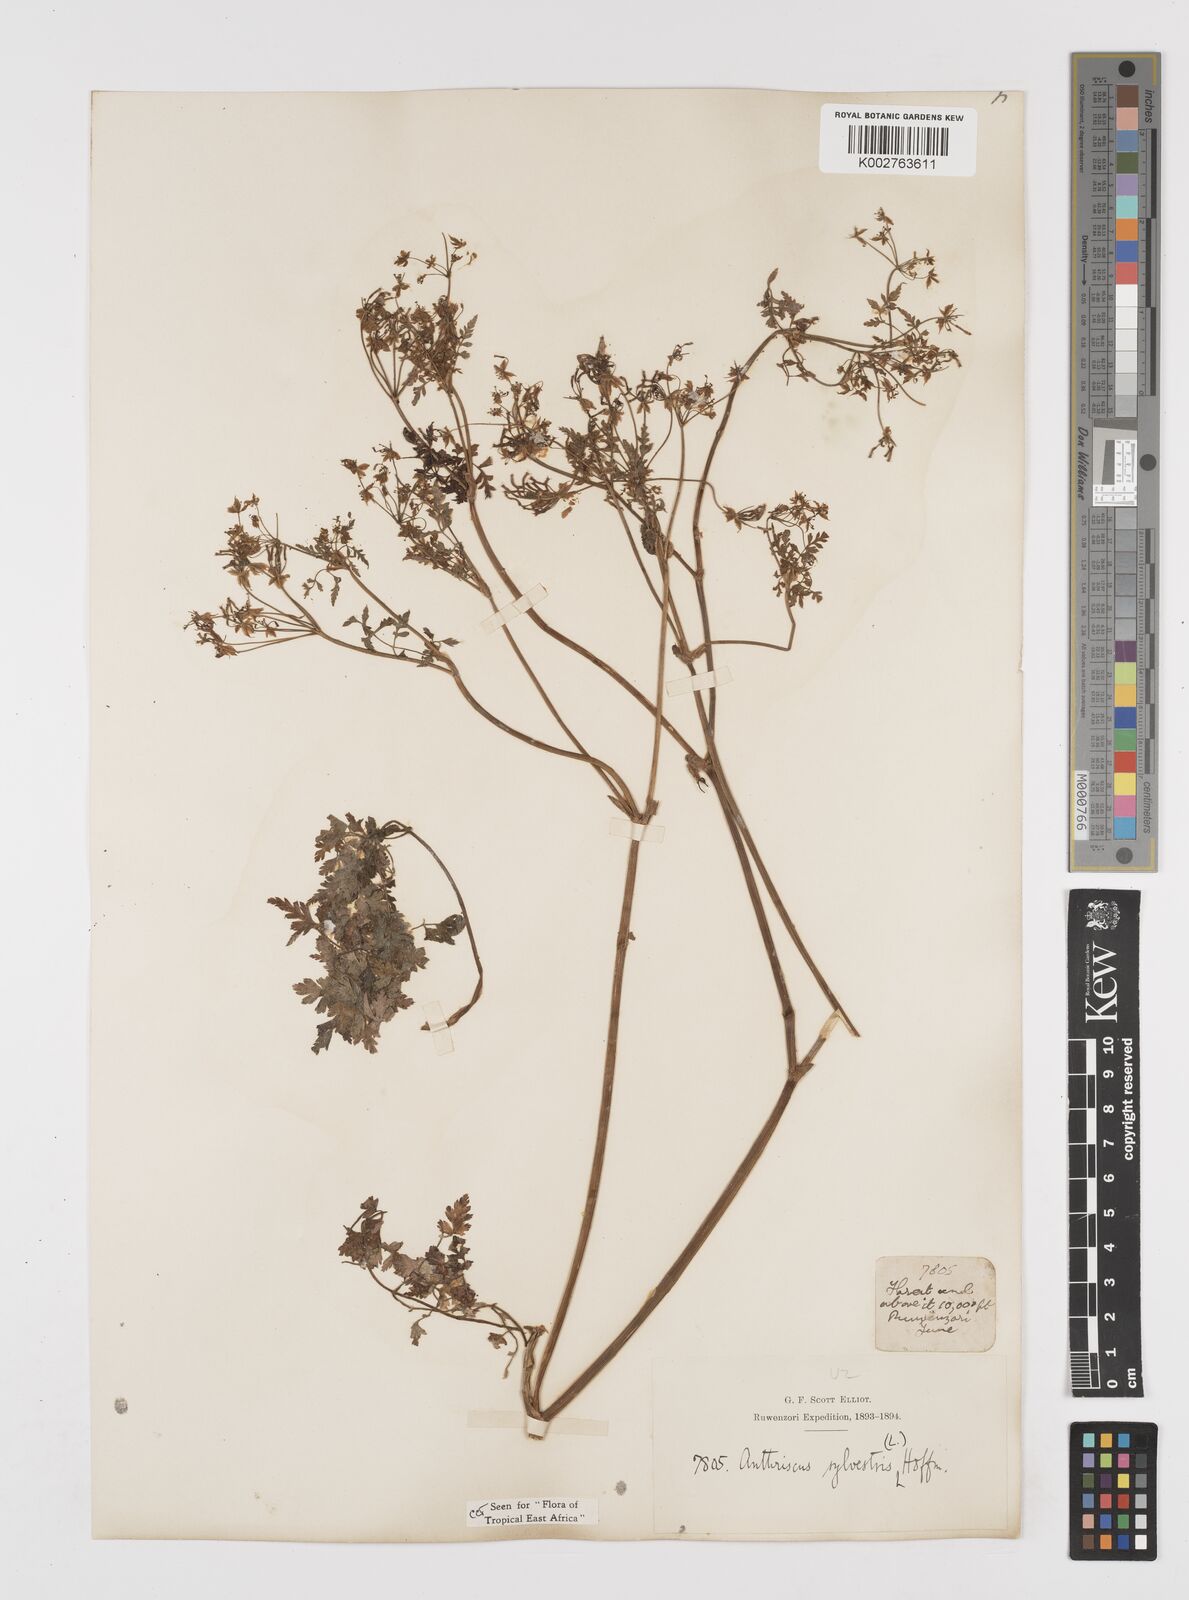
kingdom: Plantae
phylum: Tracheophyta
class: Magnoliopsida
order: Apiales
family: Apiaceae
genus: Anthriscus
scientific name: Anthriscus sylvestris
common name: Cow parsley
